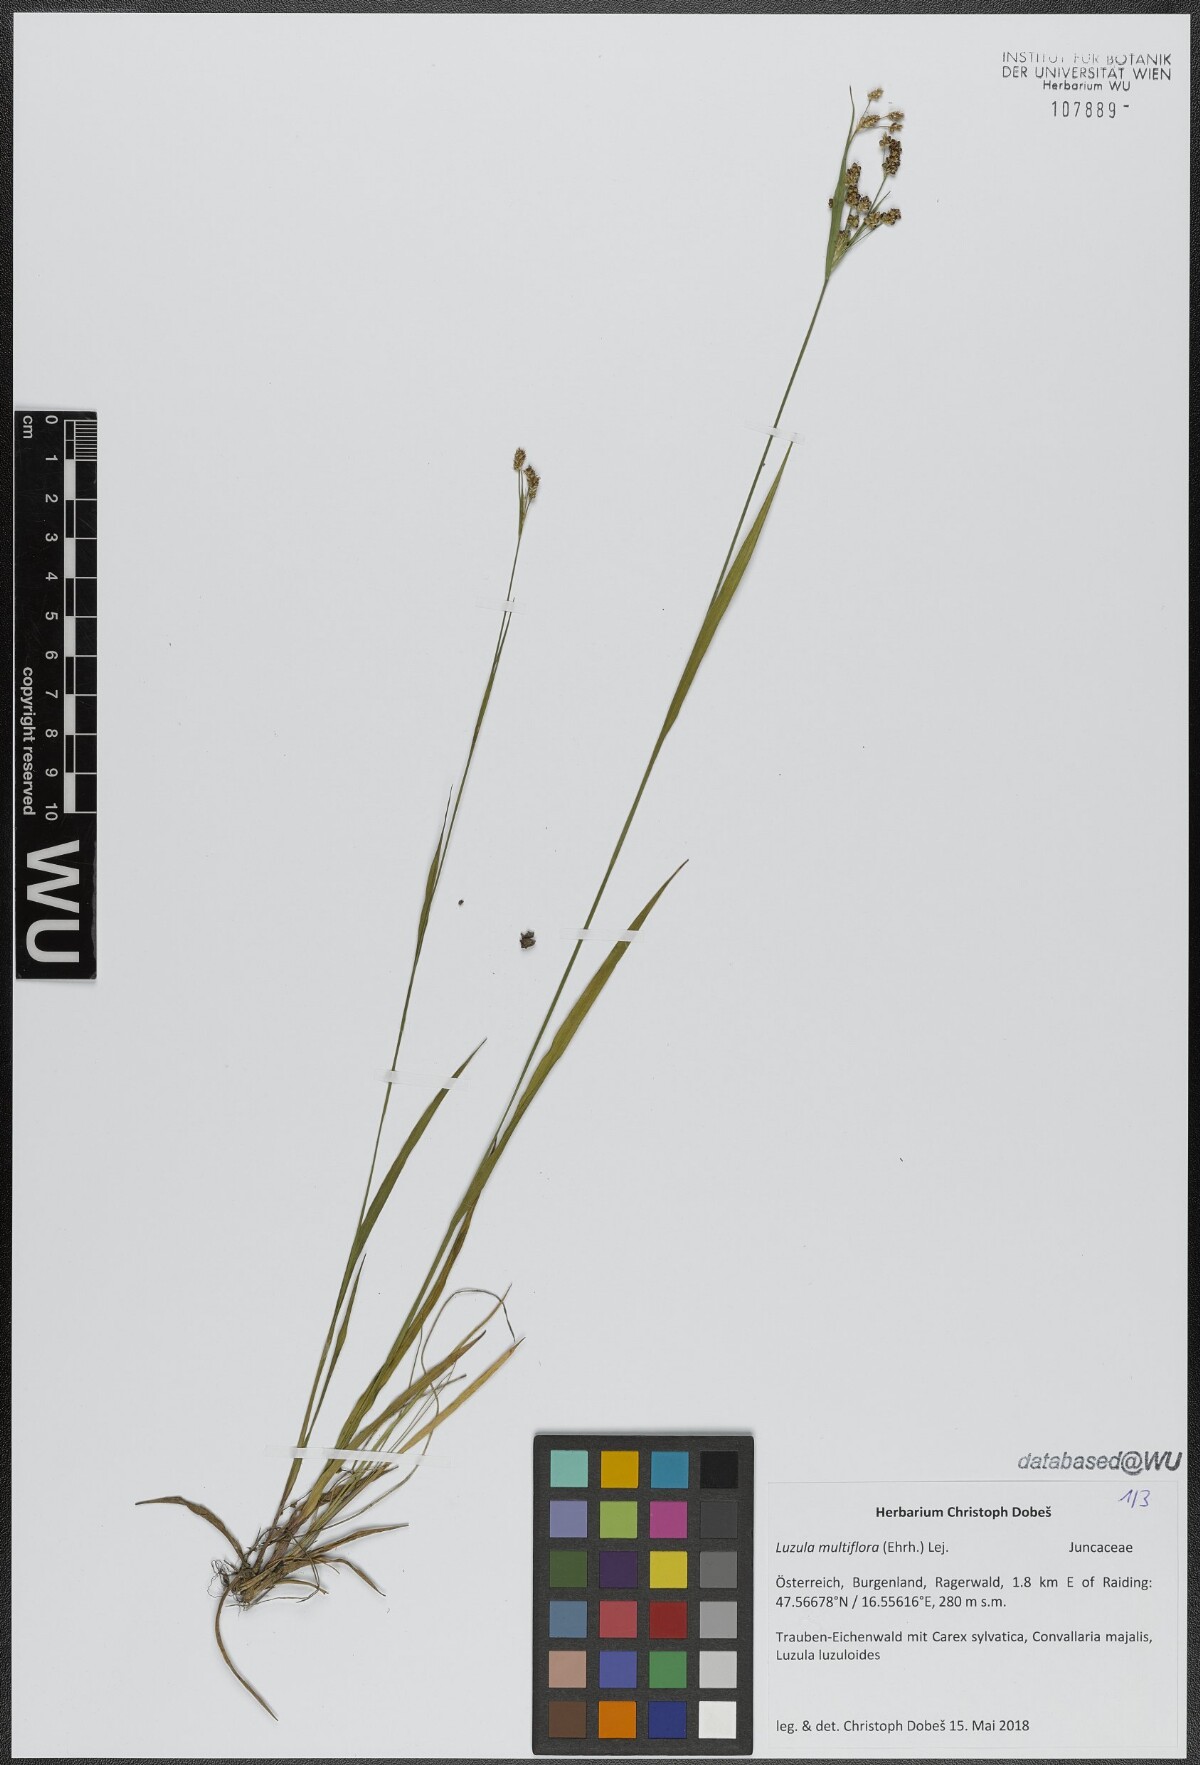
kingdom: Plantae
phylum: Tracheophyta
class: Liliopsida
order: Poales
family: Juncaceae
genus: Luzula
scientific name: Luzula multiflora
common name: Heath wood-rush
